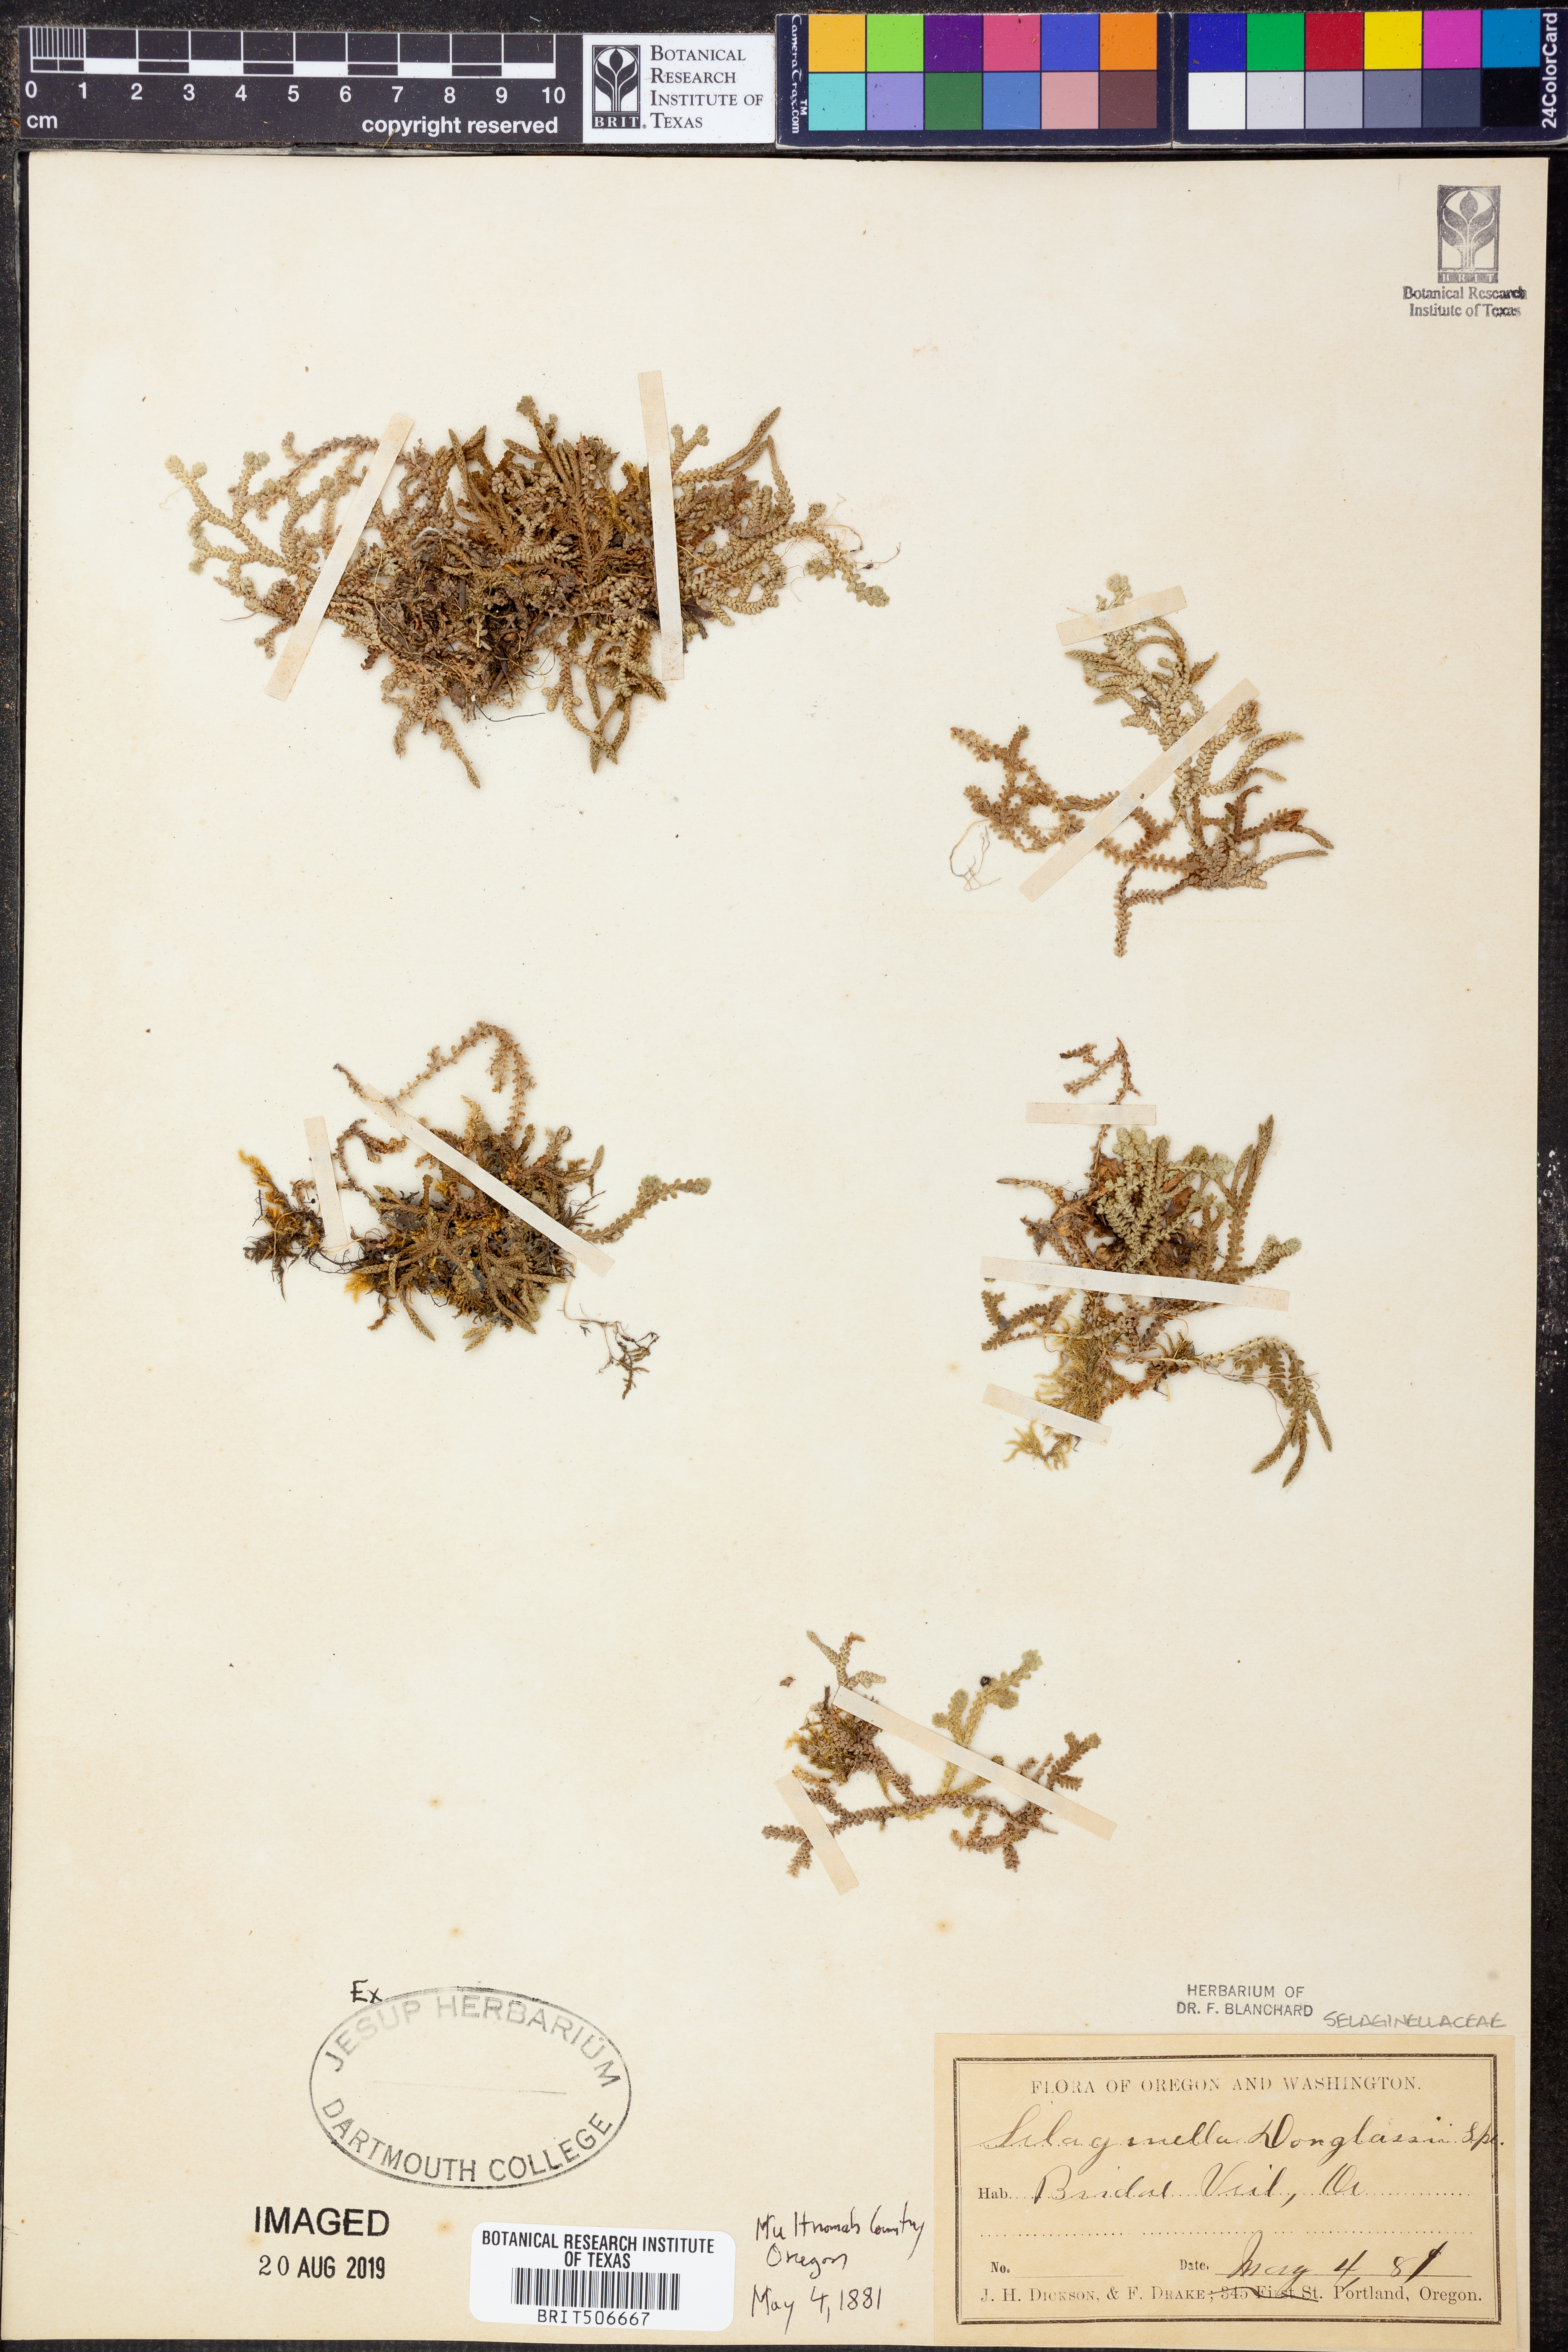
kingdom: Plantae
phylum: Tracheophyta
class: Lycopodiopsida
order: Selaginellales
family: Selaginellaceae
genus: Selaginella
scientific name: Selaginella douglasii
